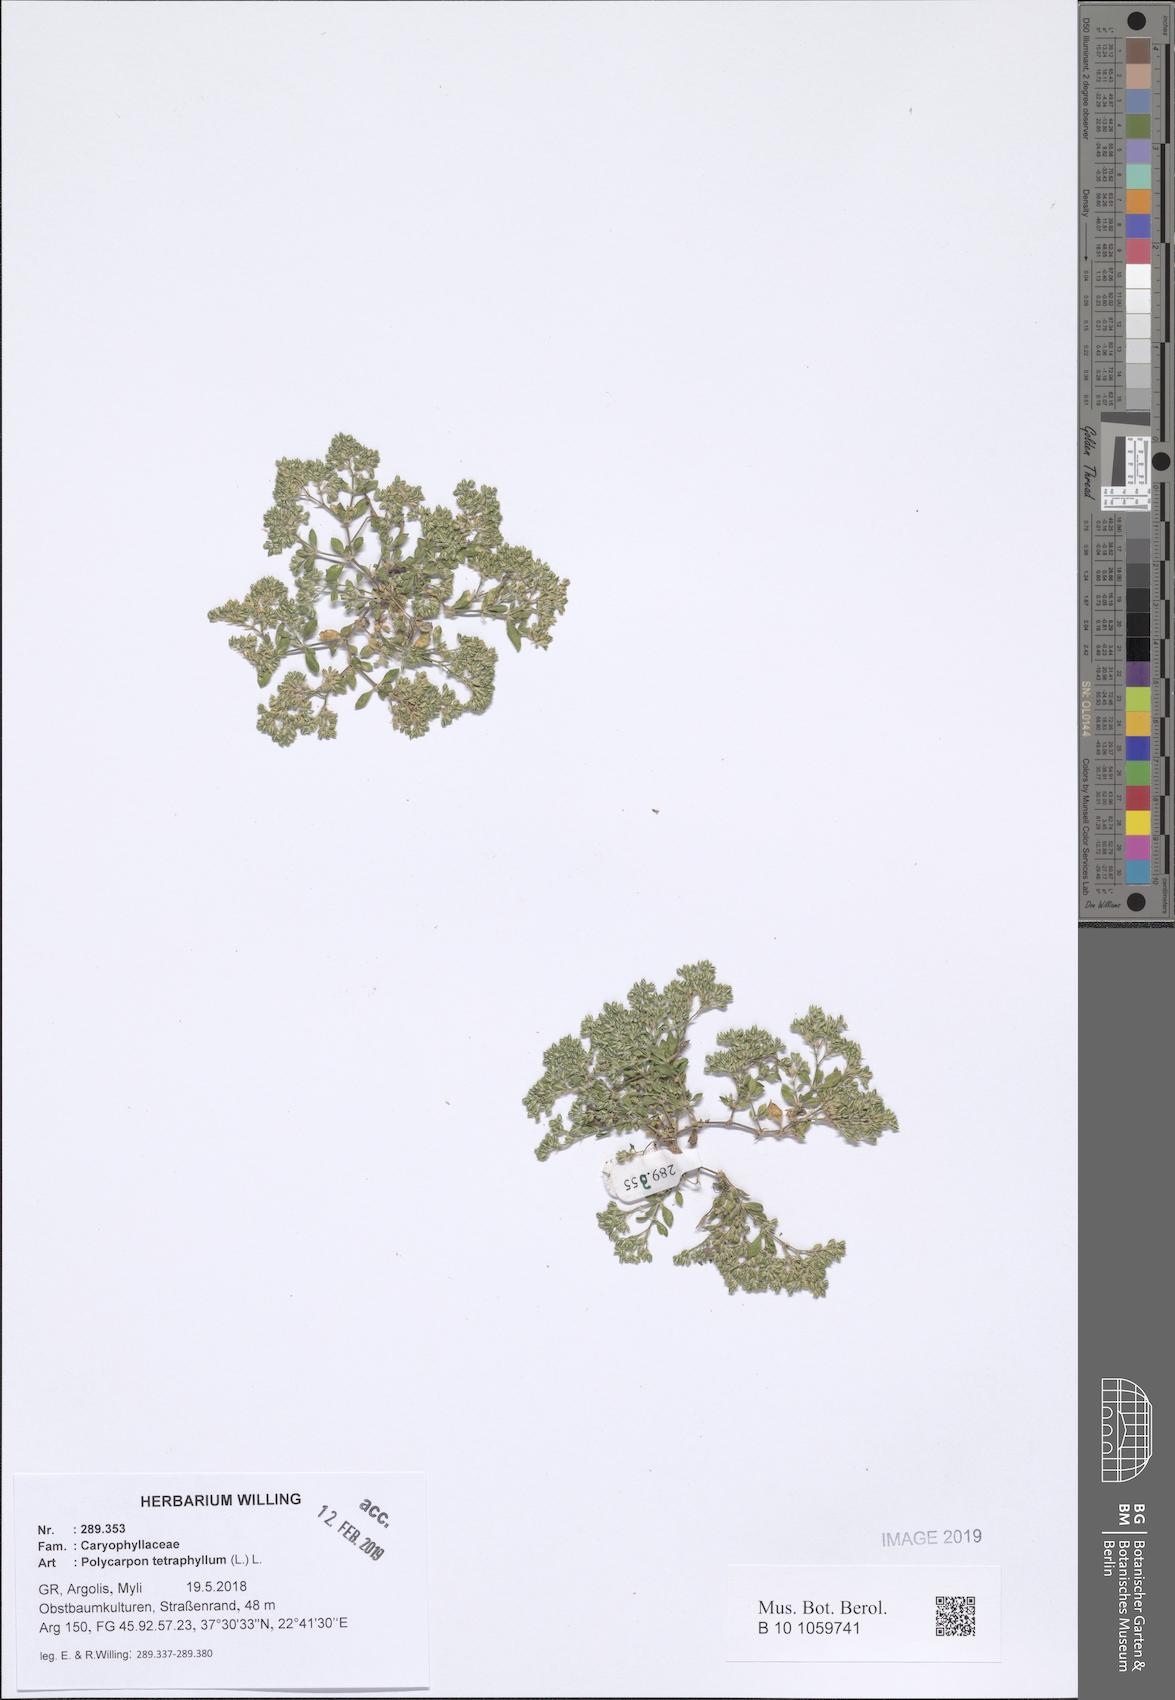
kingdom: Plantae
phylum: Tracheophyta
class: Magnoliopsida
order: Caryophyllales
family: Caryophyllaceae
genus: Polycarpon
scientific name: Polycarpon tetraphyllum
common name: Four-leaved all-seed
